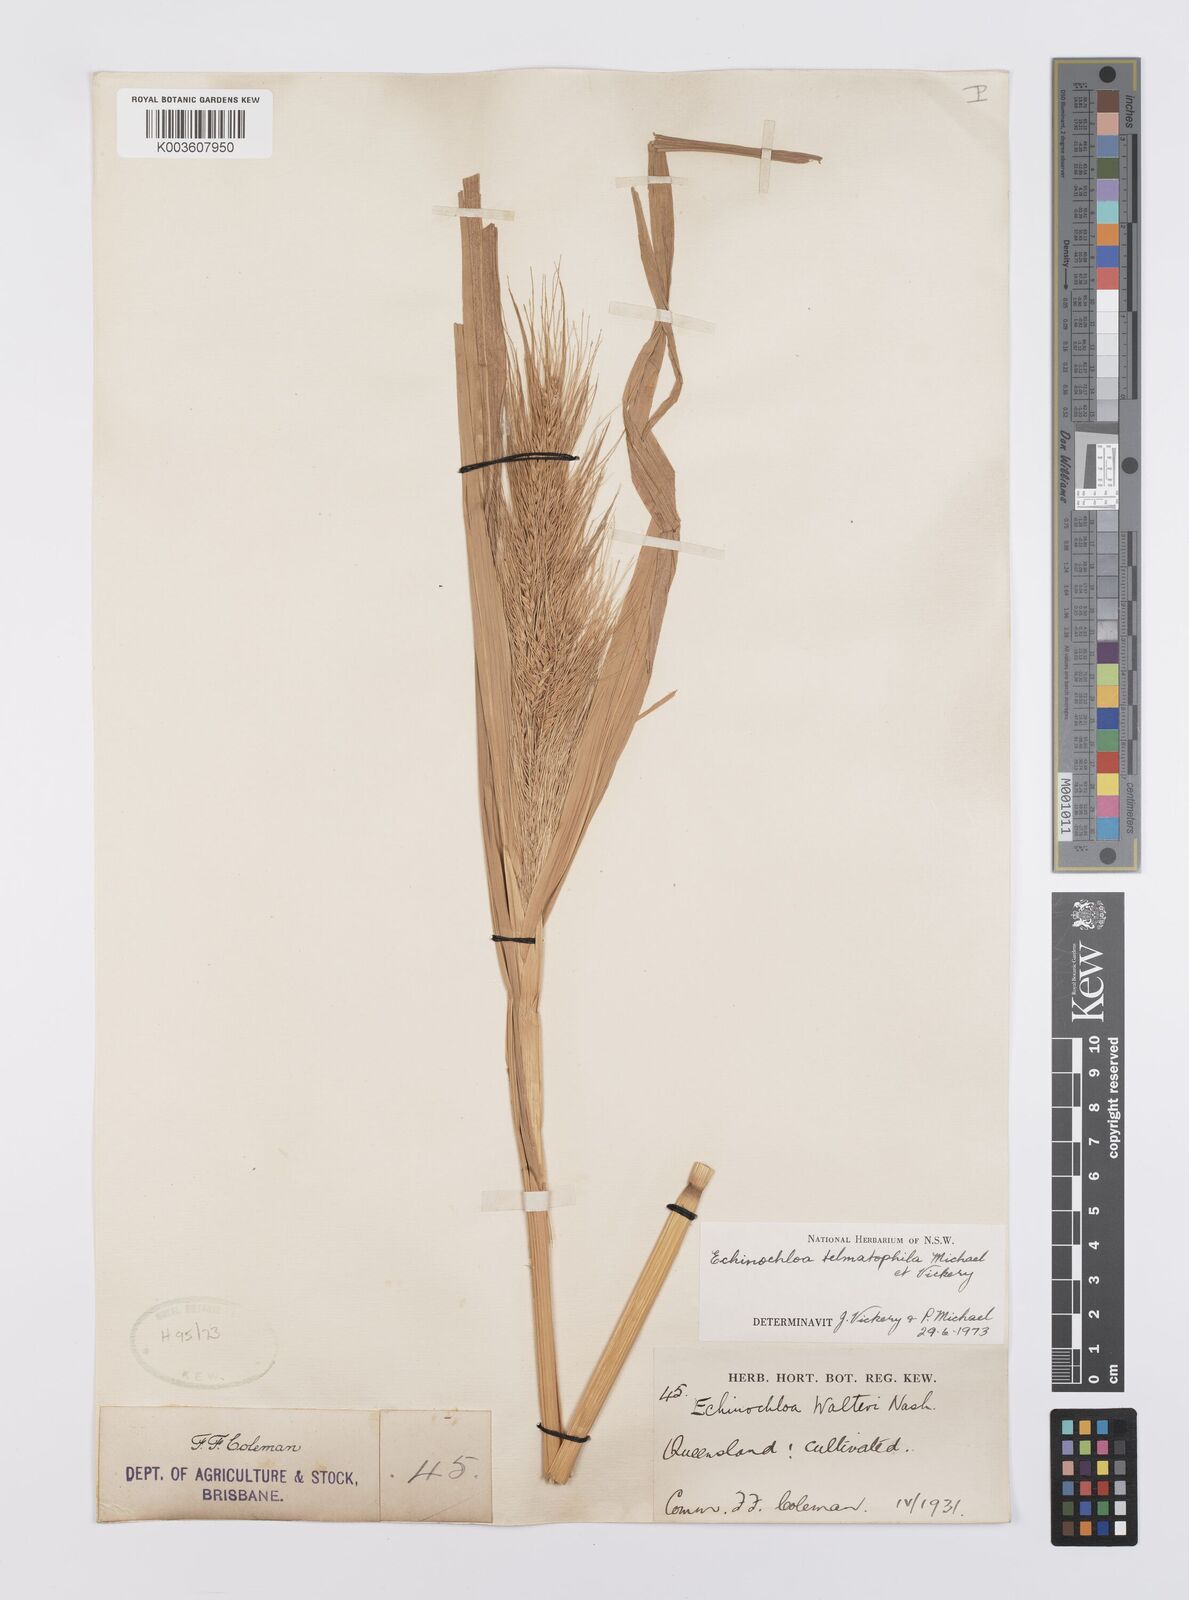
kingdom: Plantae
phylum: Tracheophyta
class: Liliopsida
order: Poales
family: Poaceae
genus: Echinochloa
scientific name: Echinochloa crus-galli
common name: Cockspur
